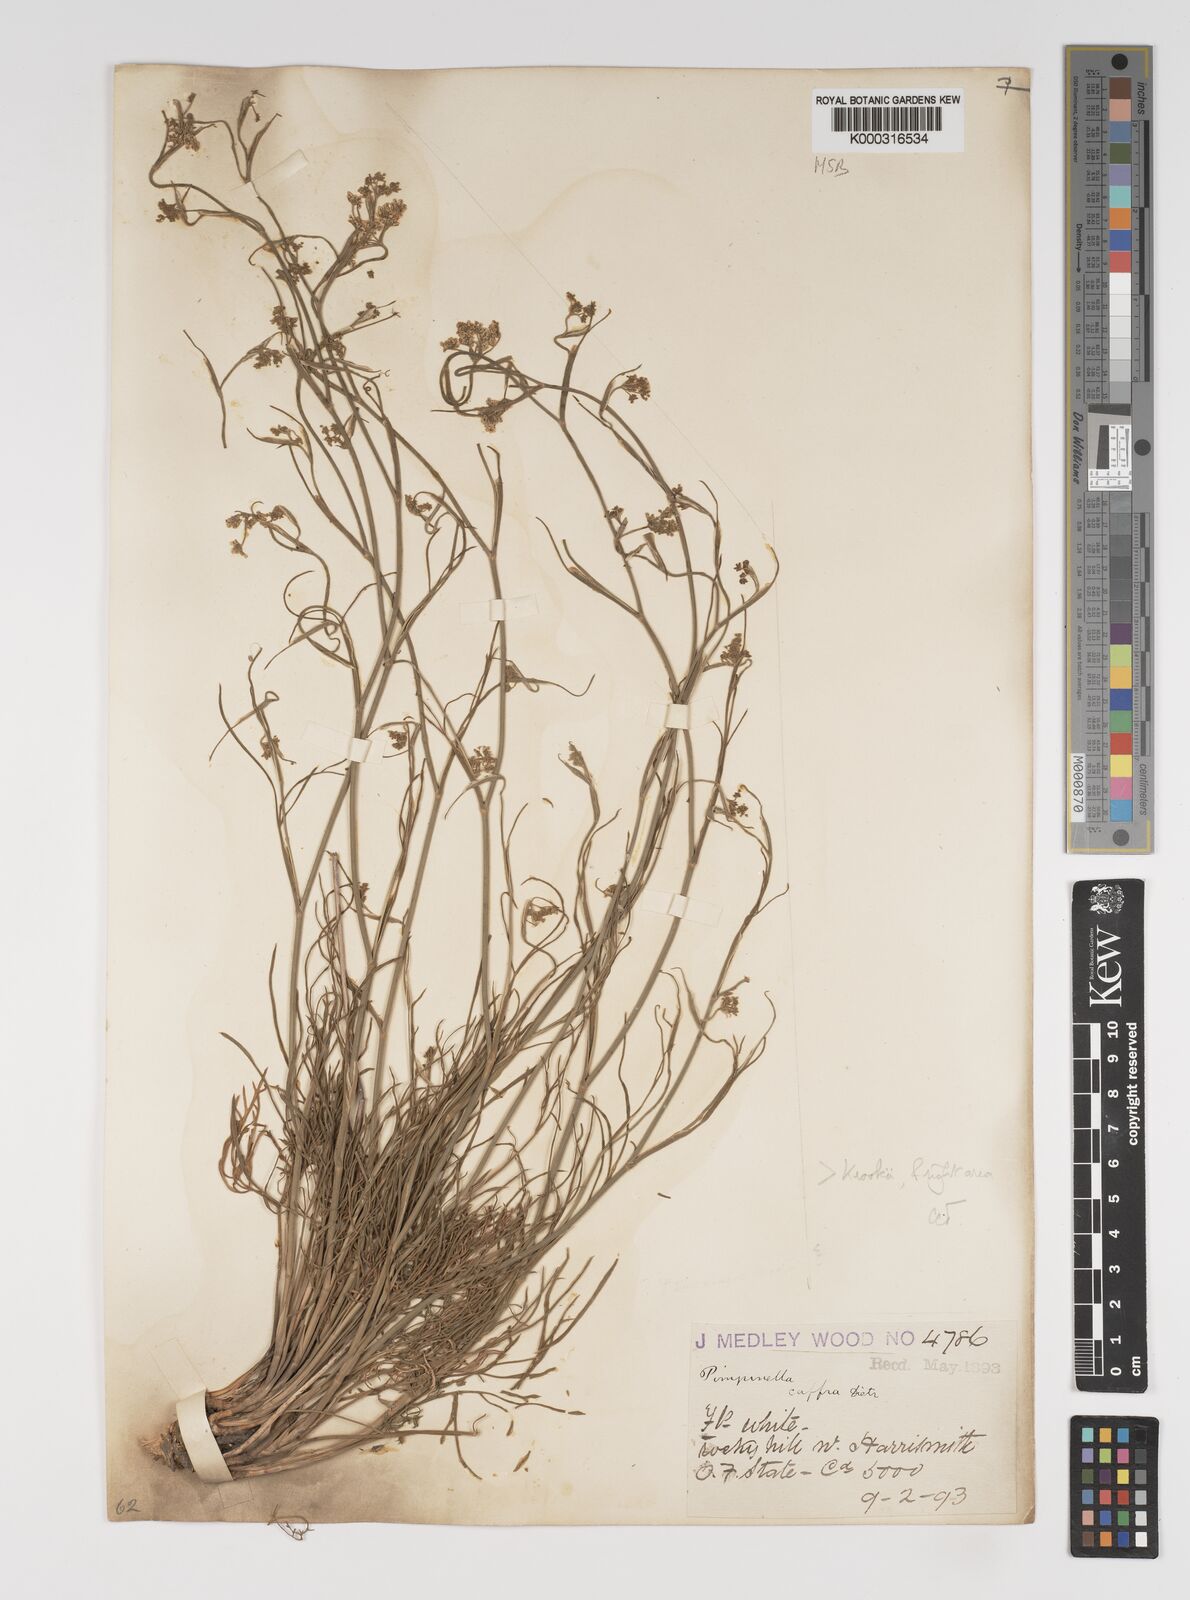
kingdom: Plantae
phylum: Tracheophyta
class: Magnoliopsida
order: Apiales
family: Apiaceae
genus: Pimpinella
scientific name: Pimpinella caffra
